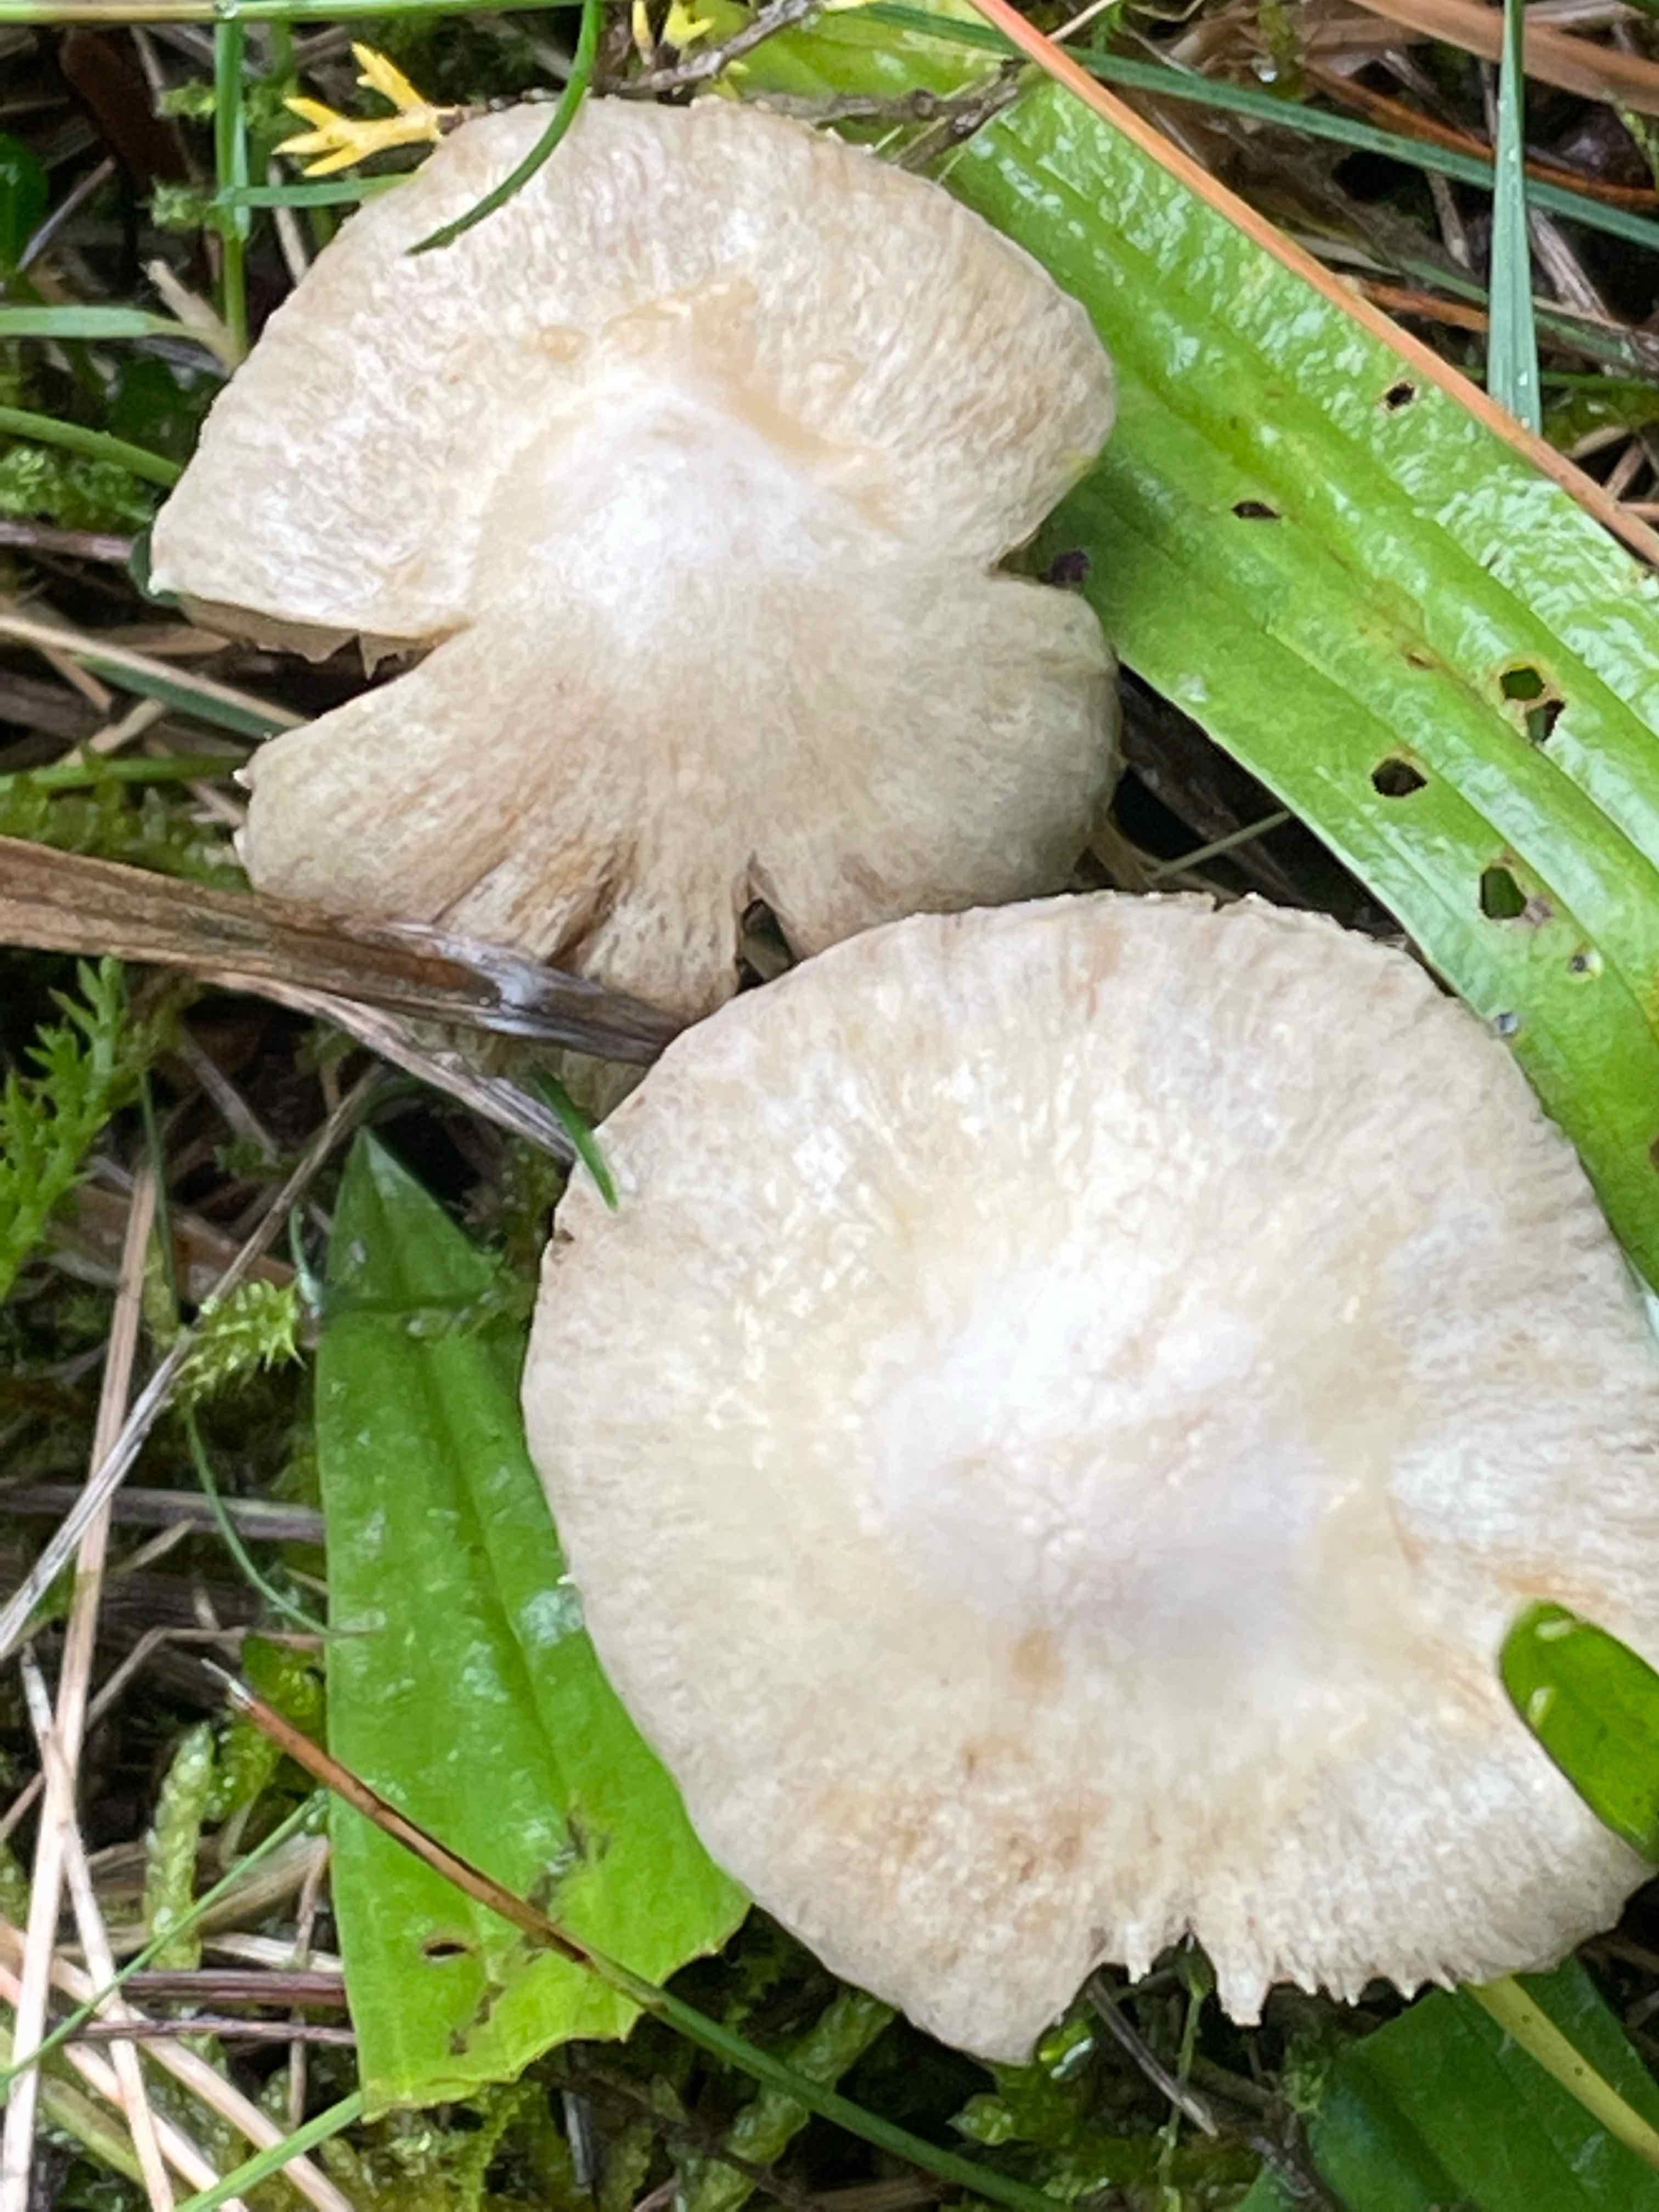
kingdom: Fungi
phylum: Basidiomycota
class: Agaricomycetes
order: Agaricales
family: Inocybaceae
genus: Inocybe
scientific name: Inocybe
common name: almindelig trævlhat
